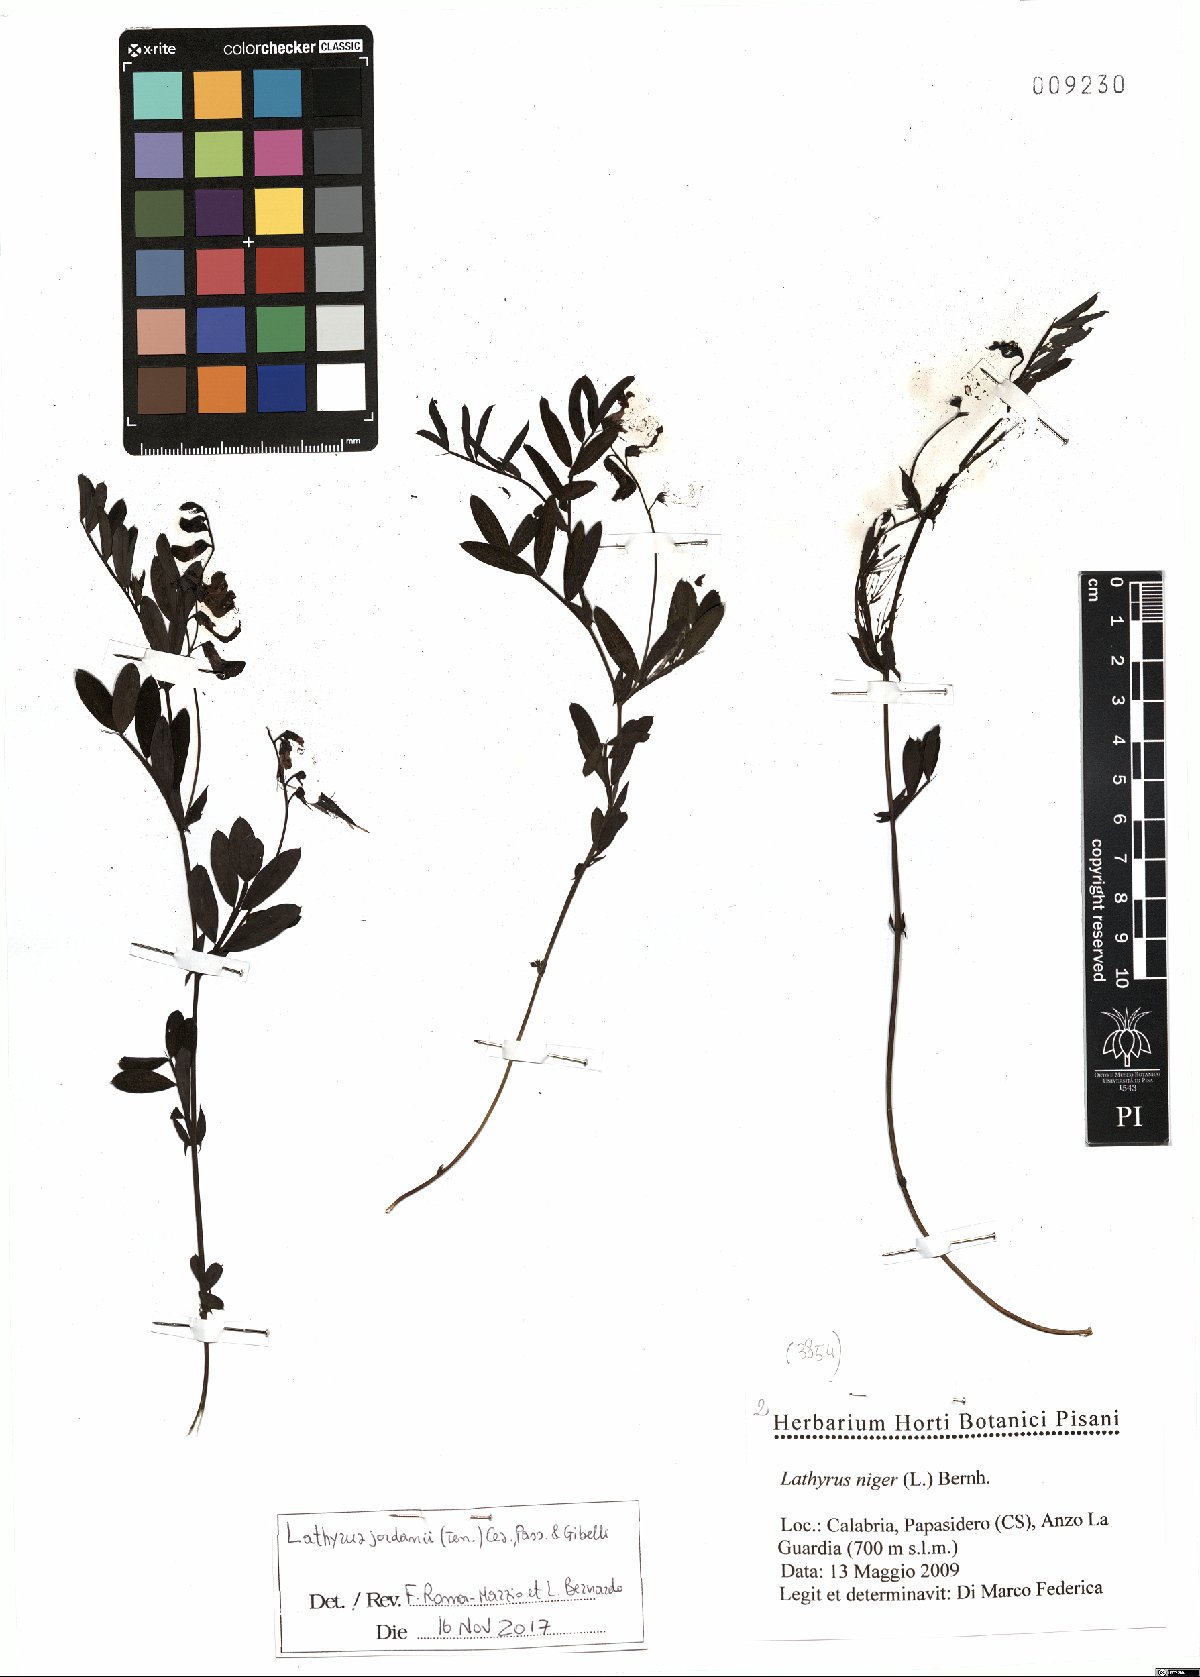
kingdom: Plantae
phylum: Tracheophyta
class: Magnoliopsida
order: Fabales
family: Fabaceae
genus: Lathyrus
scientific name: Lathyrus niger
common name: Black pea
